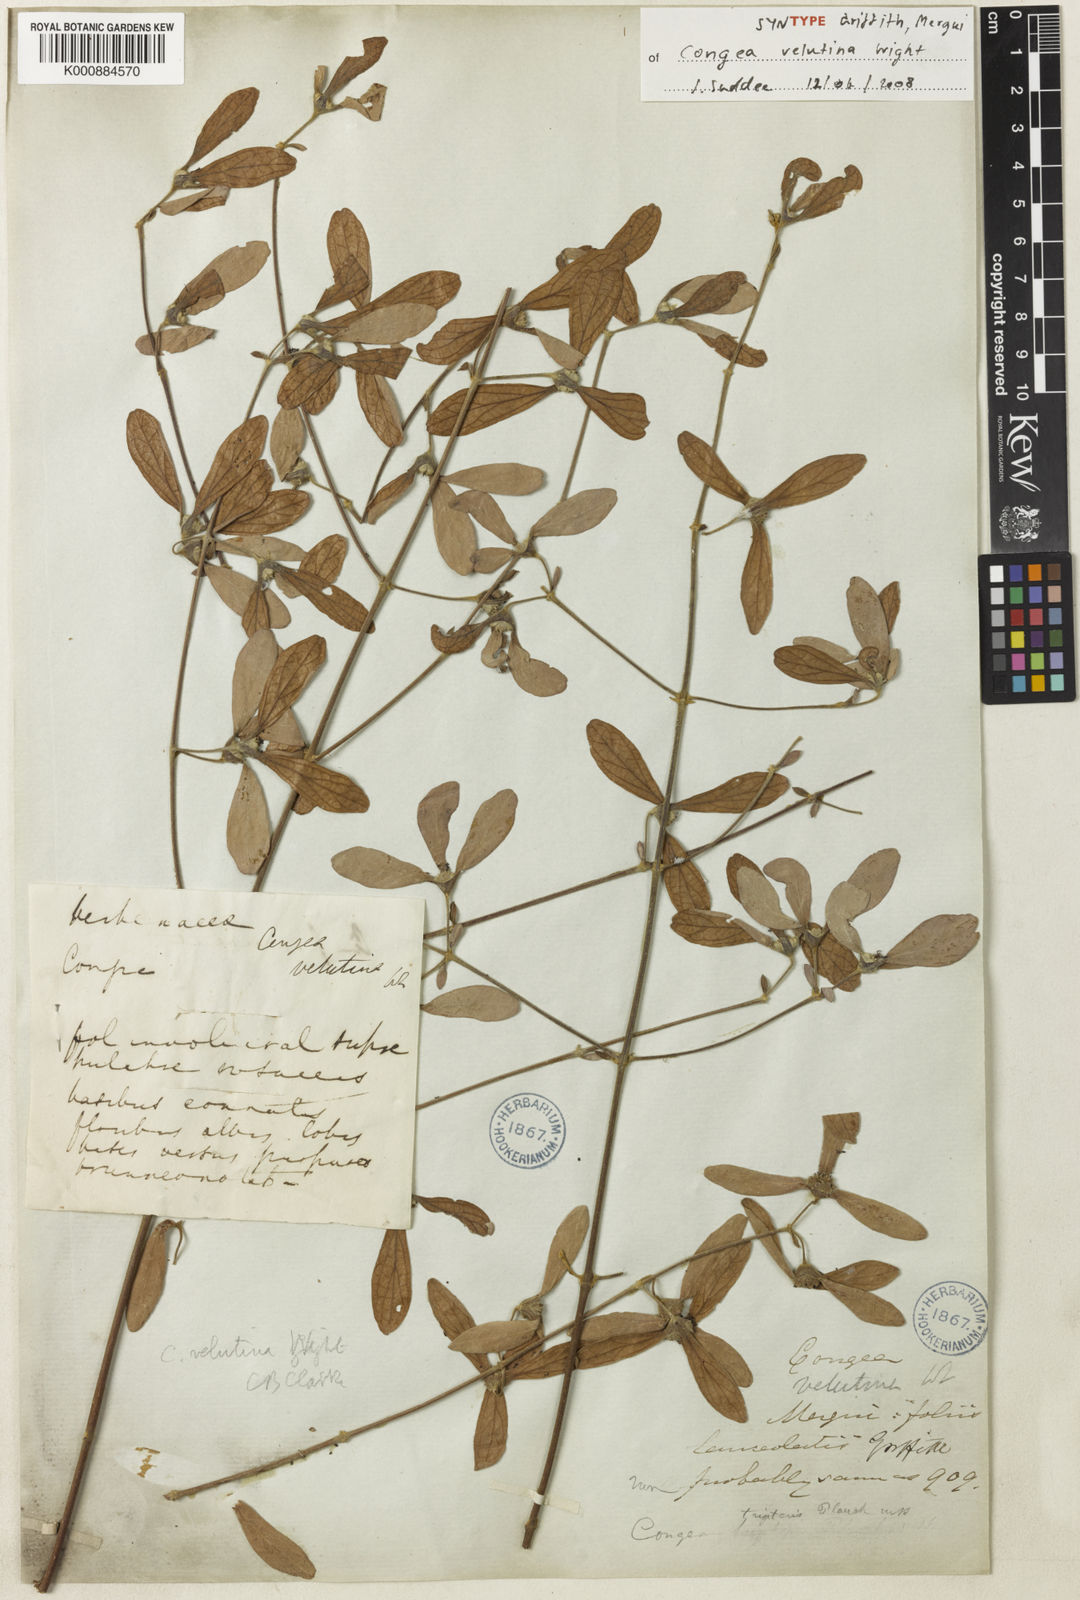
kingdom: Plantae
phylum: Tracheophyta
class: Magnoliopsida
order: Lamiales
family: Lamiaceae
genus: Congea
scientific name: Congea velutina
